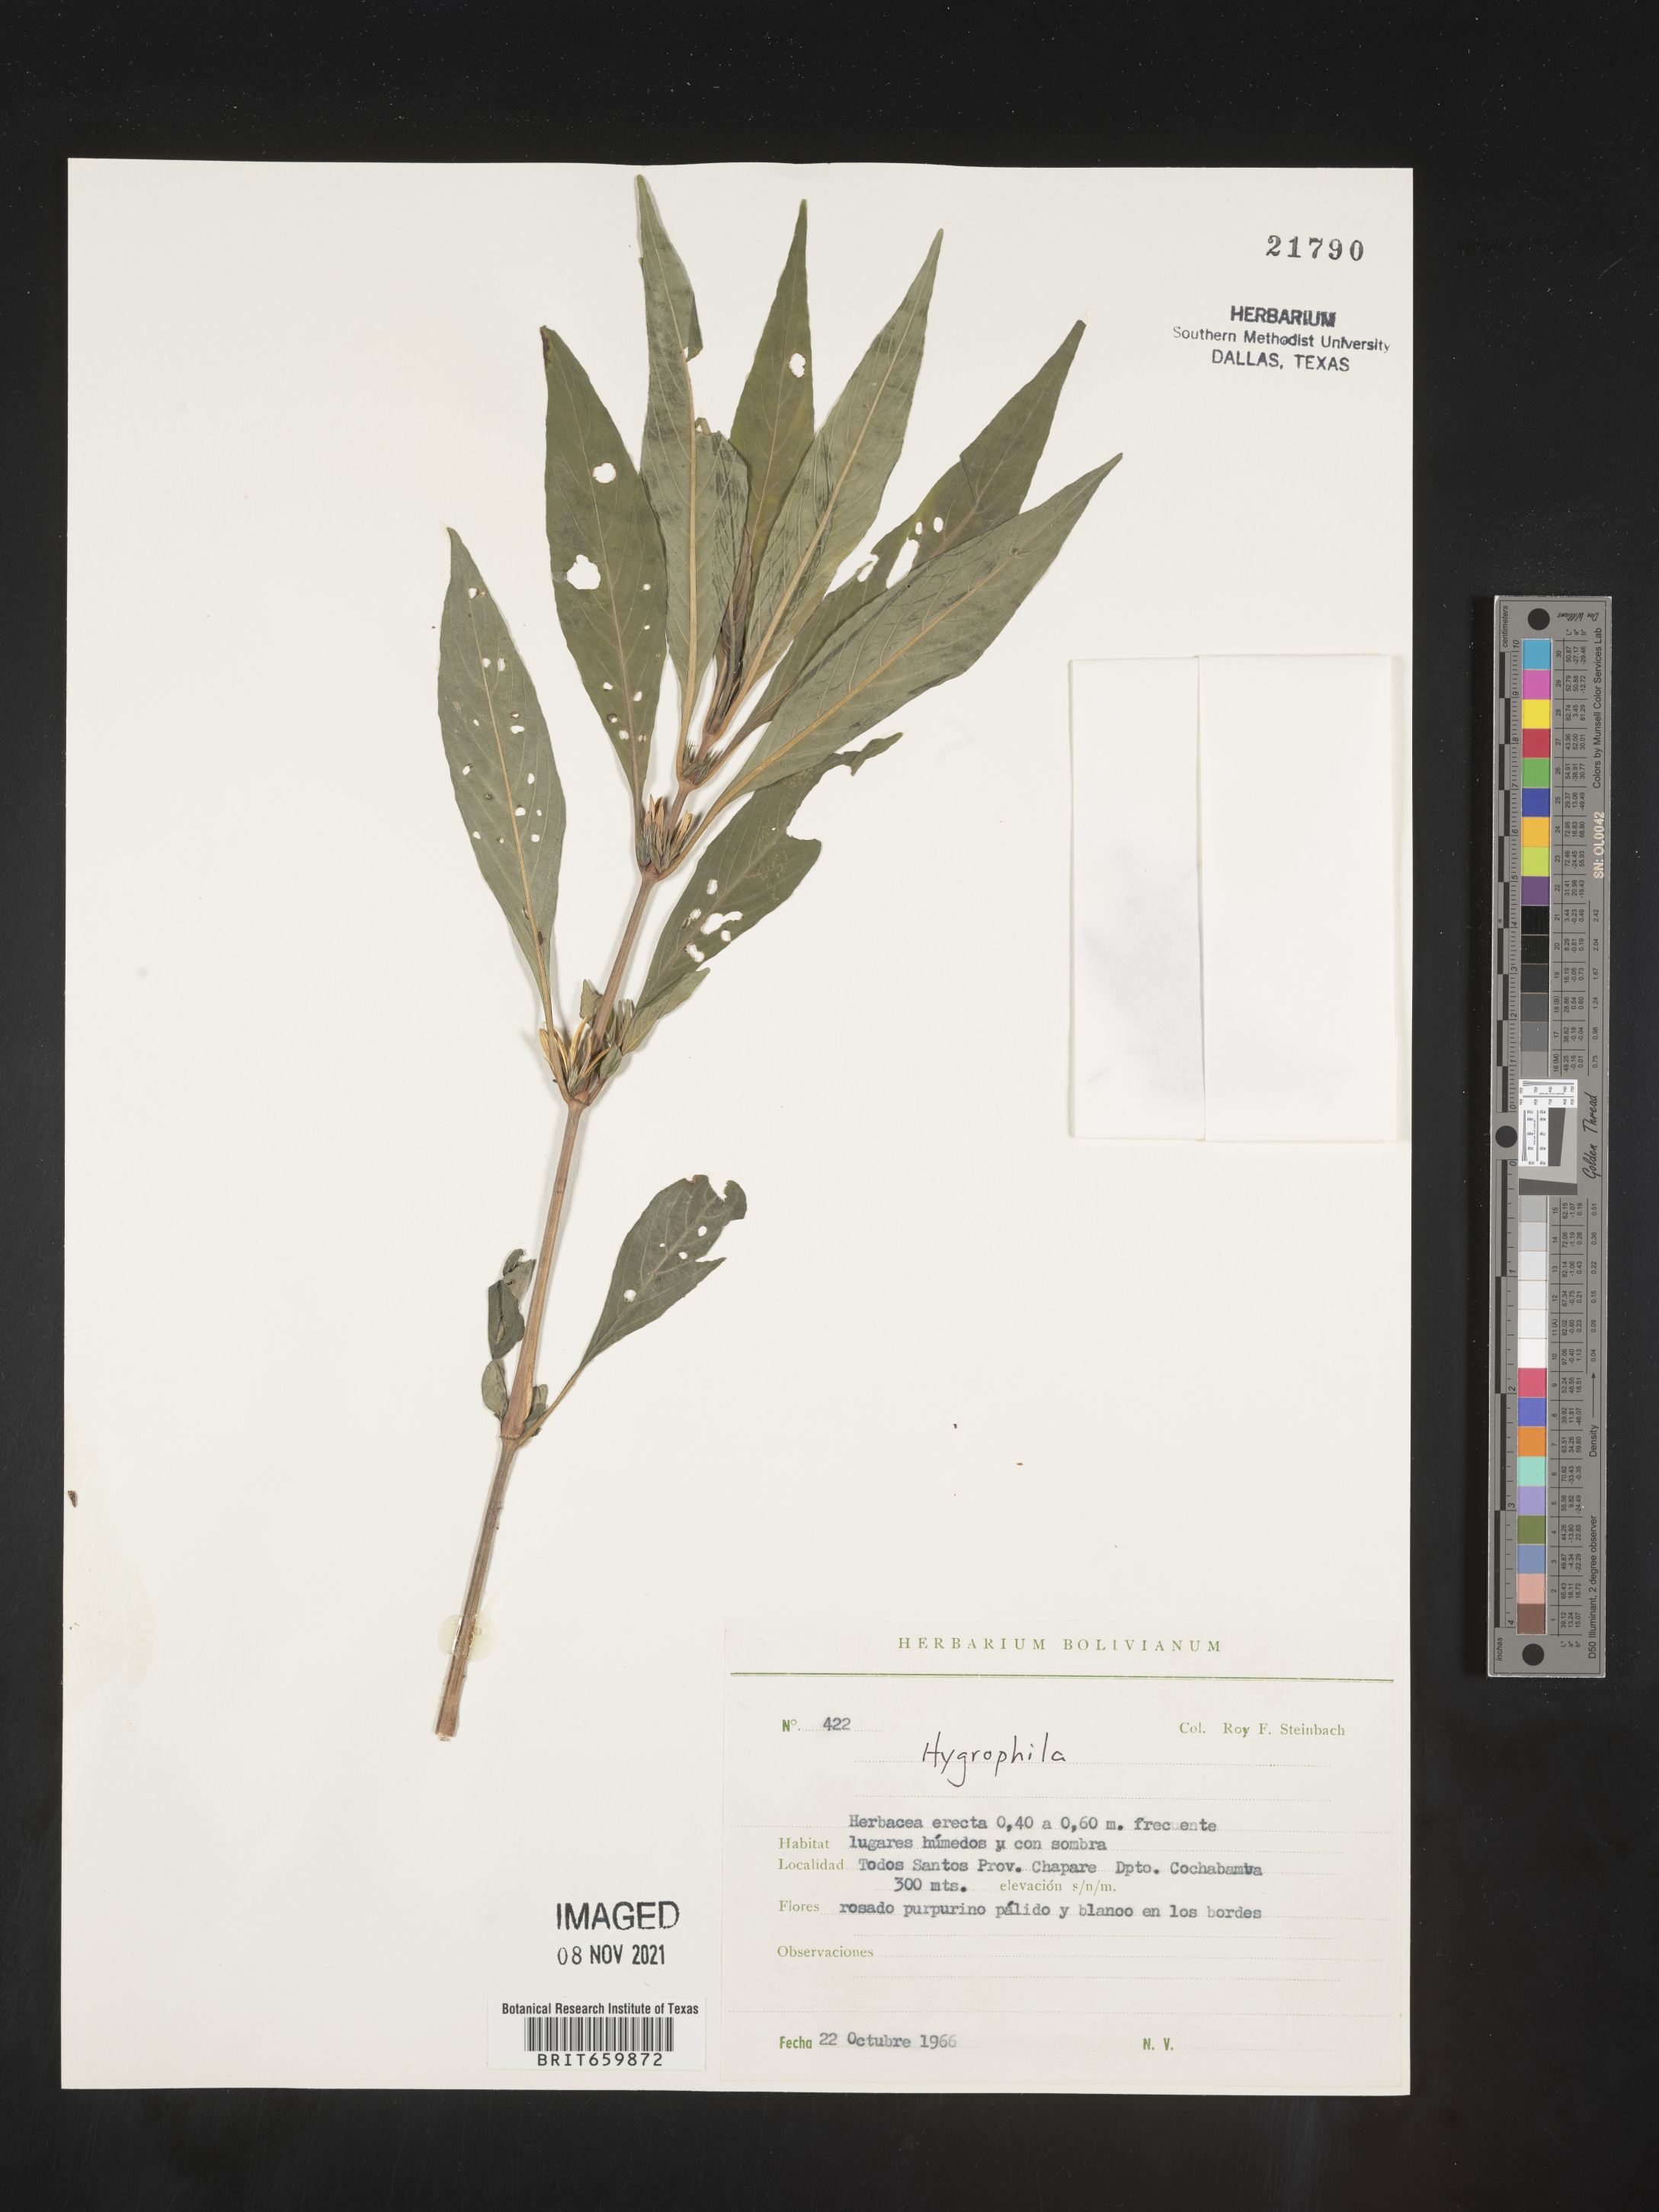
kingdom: Plantae
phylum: Tracheophyta
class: Magnoliopsida
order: Lamiales
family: Acanthaceae
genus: Hygrophila
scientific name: Hygrophila
